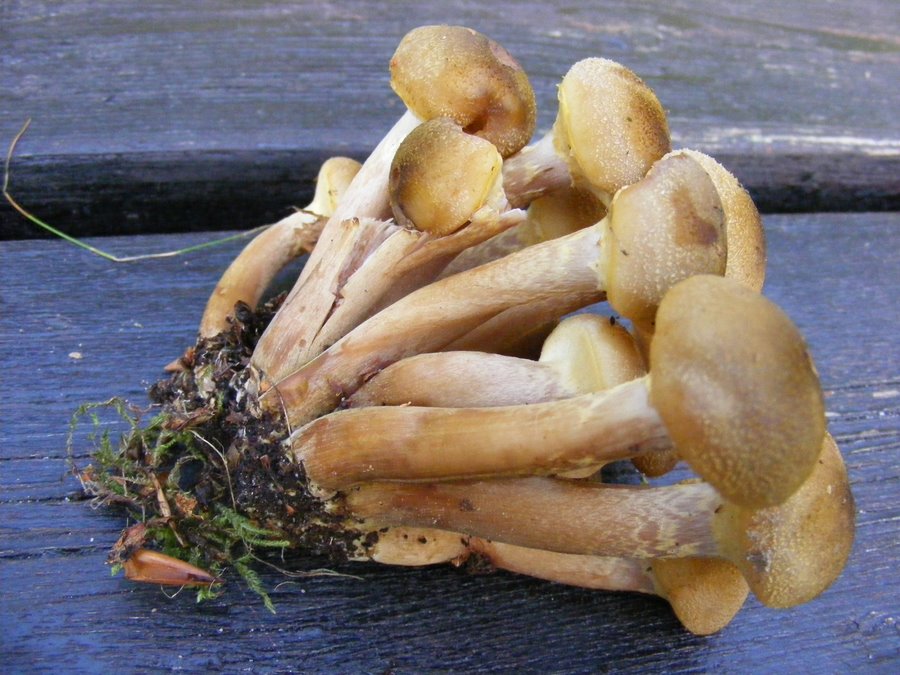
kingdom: Fungi
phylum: Basidiomycota
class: Agaricomycetes
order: Agaricales
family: Physalacriaceae
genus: Armillaria
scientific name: Armillaria mellea
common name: ægte honningsvamp
